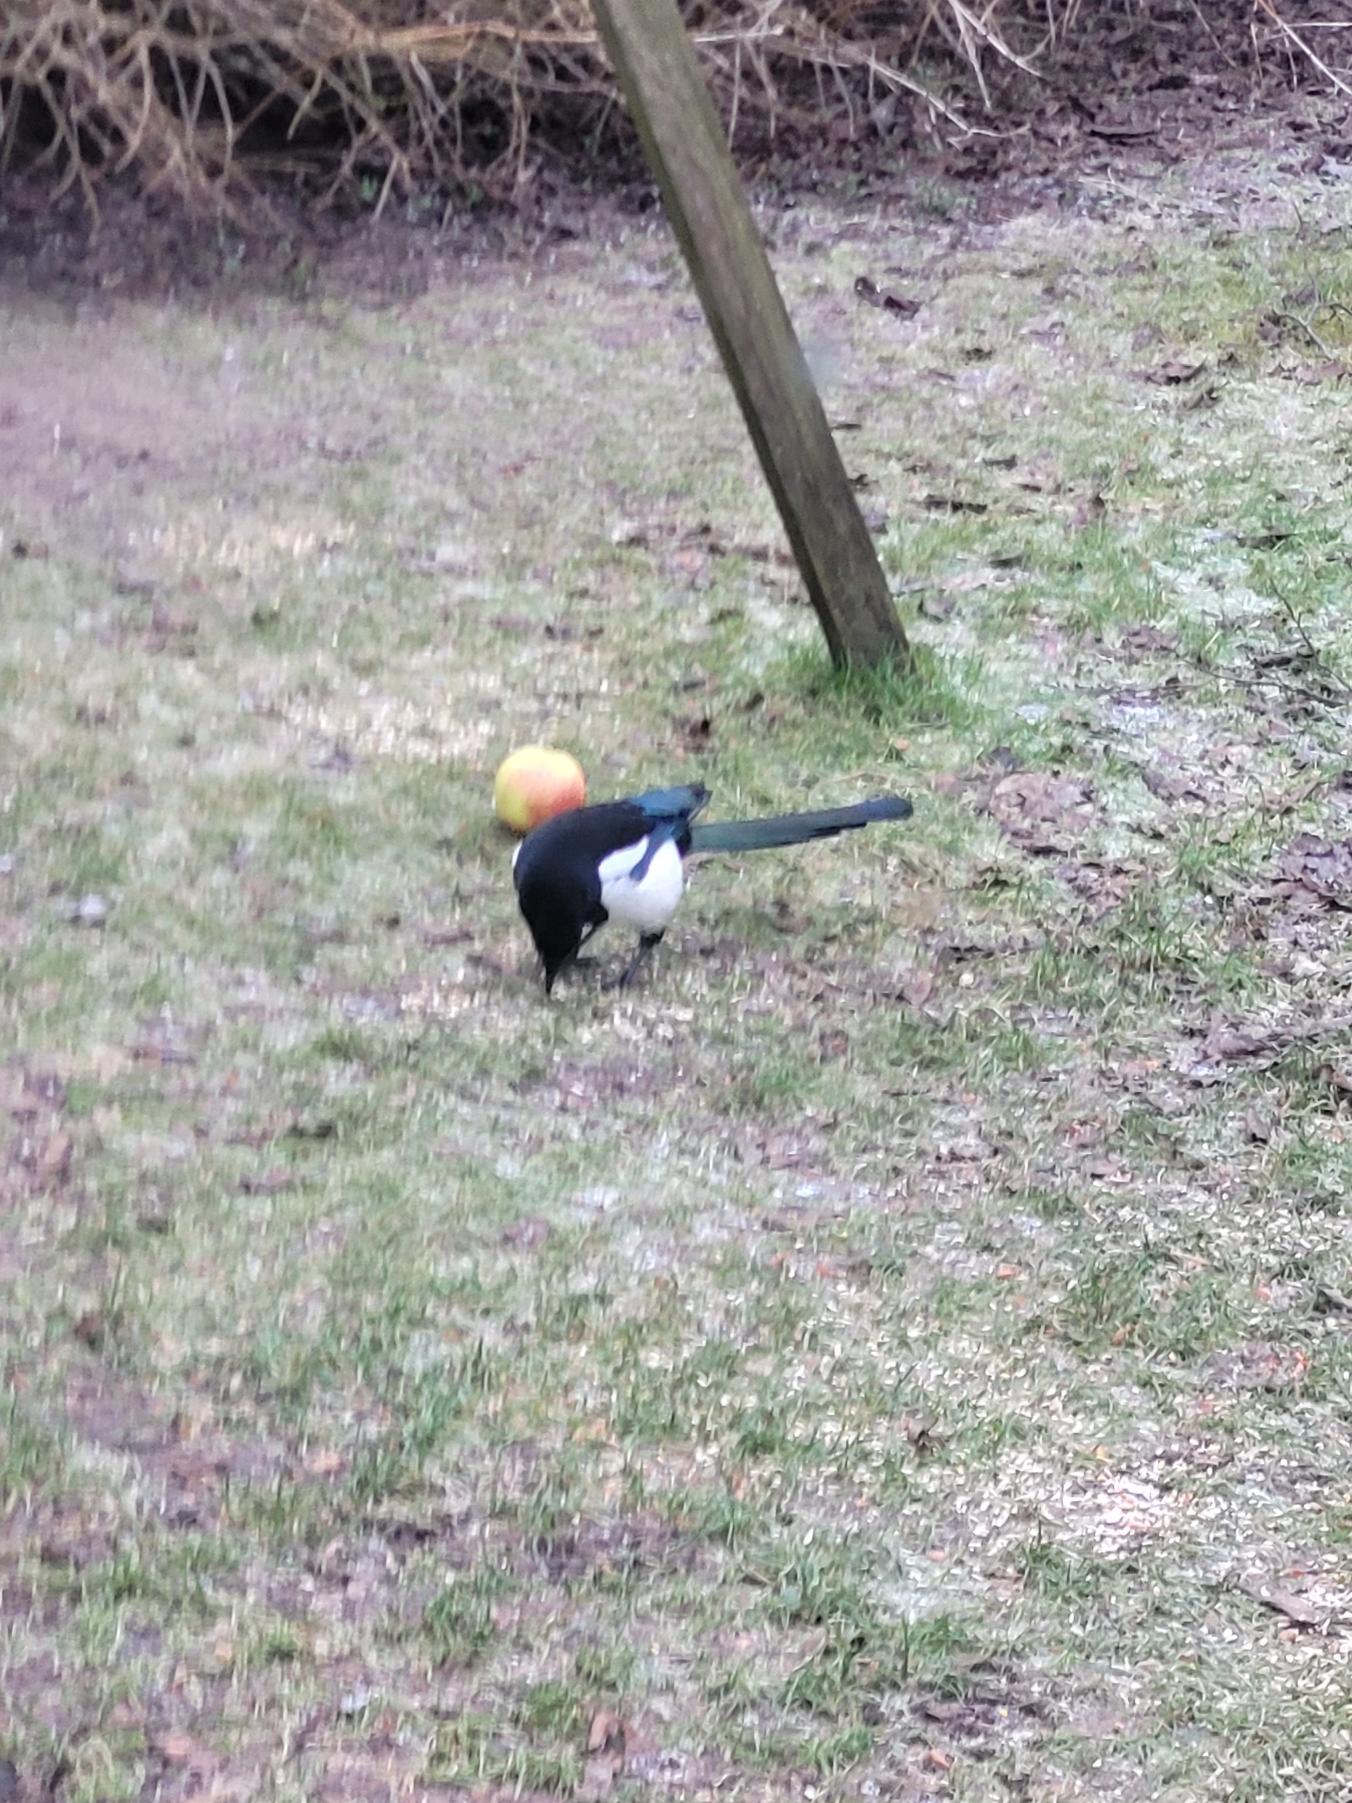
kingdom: Animalia
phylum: Chordata
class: Aves
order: Passeriformes
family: Corvidae
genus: Pica
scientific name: Pica pica
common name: Husskade
